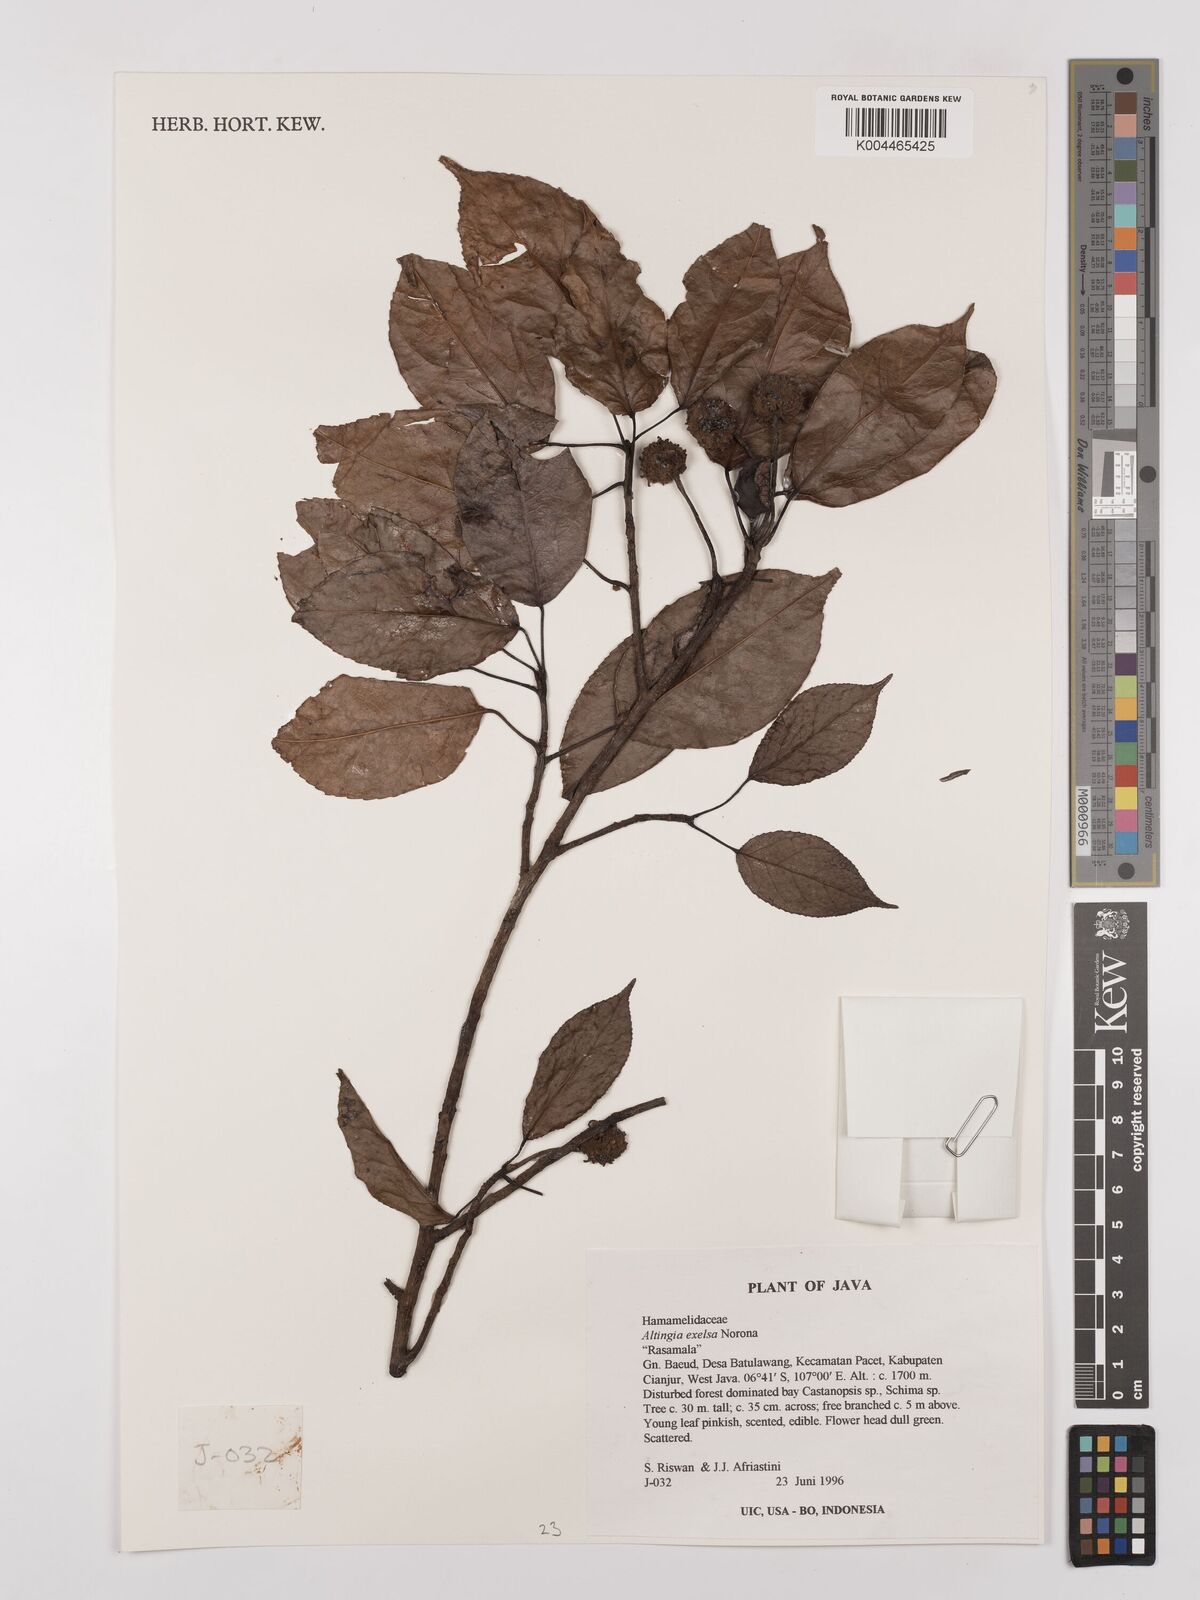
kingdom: Plantae
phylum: Tracheophyta
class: Magnoliopsida
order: Saxifragales
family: Altingiaceae
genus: Liquidambar
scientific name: Liquidambar excelsa
